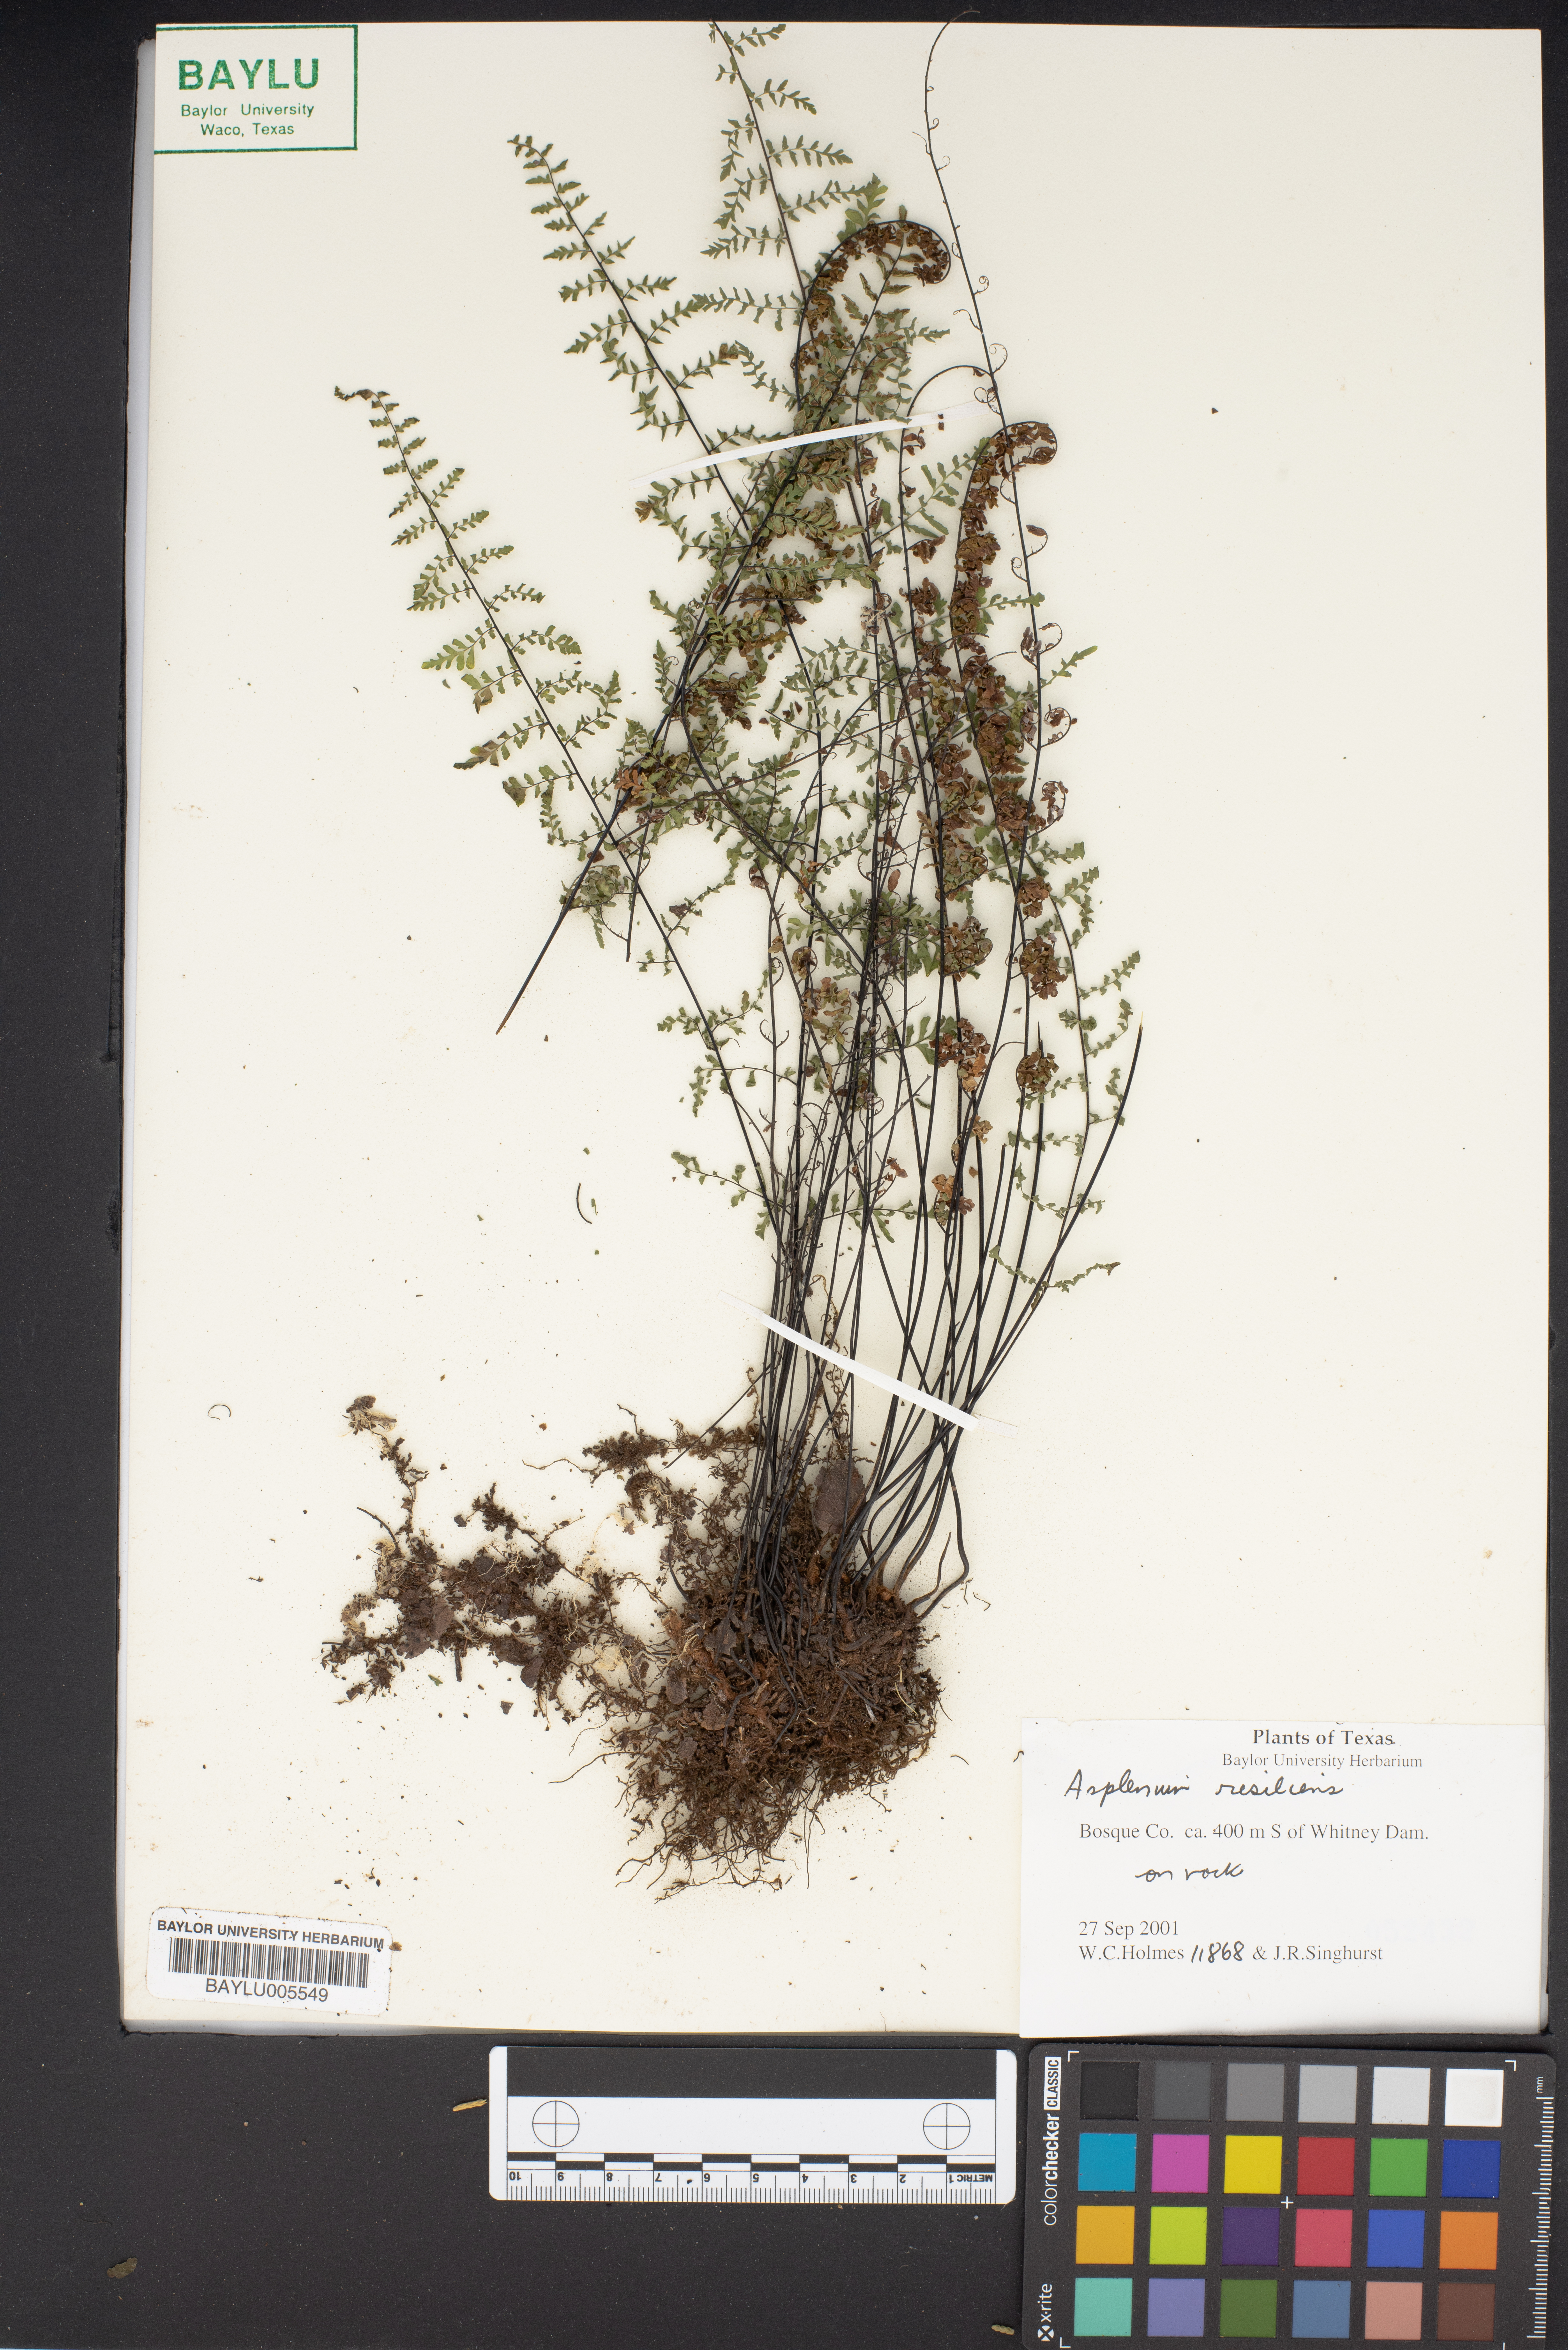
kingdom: Plantae
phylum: Tracheophyta
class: Polypodiopsida
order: Polypodiales
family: Aspleniaceae
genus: Asplenium
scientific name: Asplenium resiliens
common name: Blackstem spleenwort
